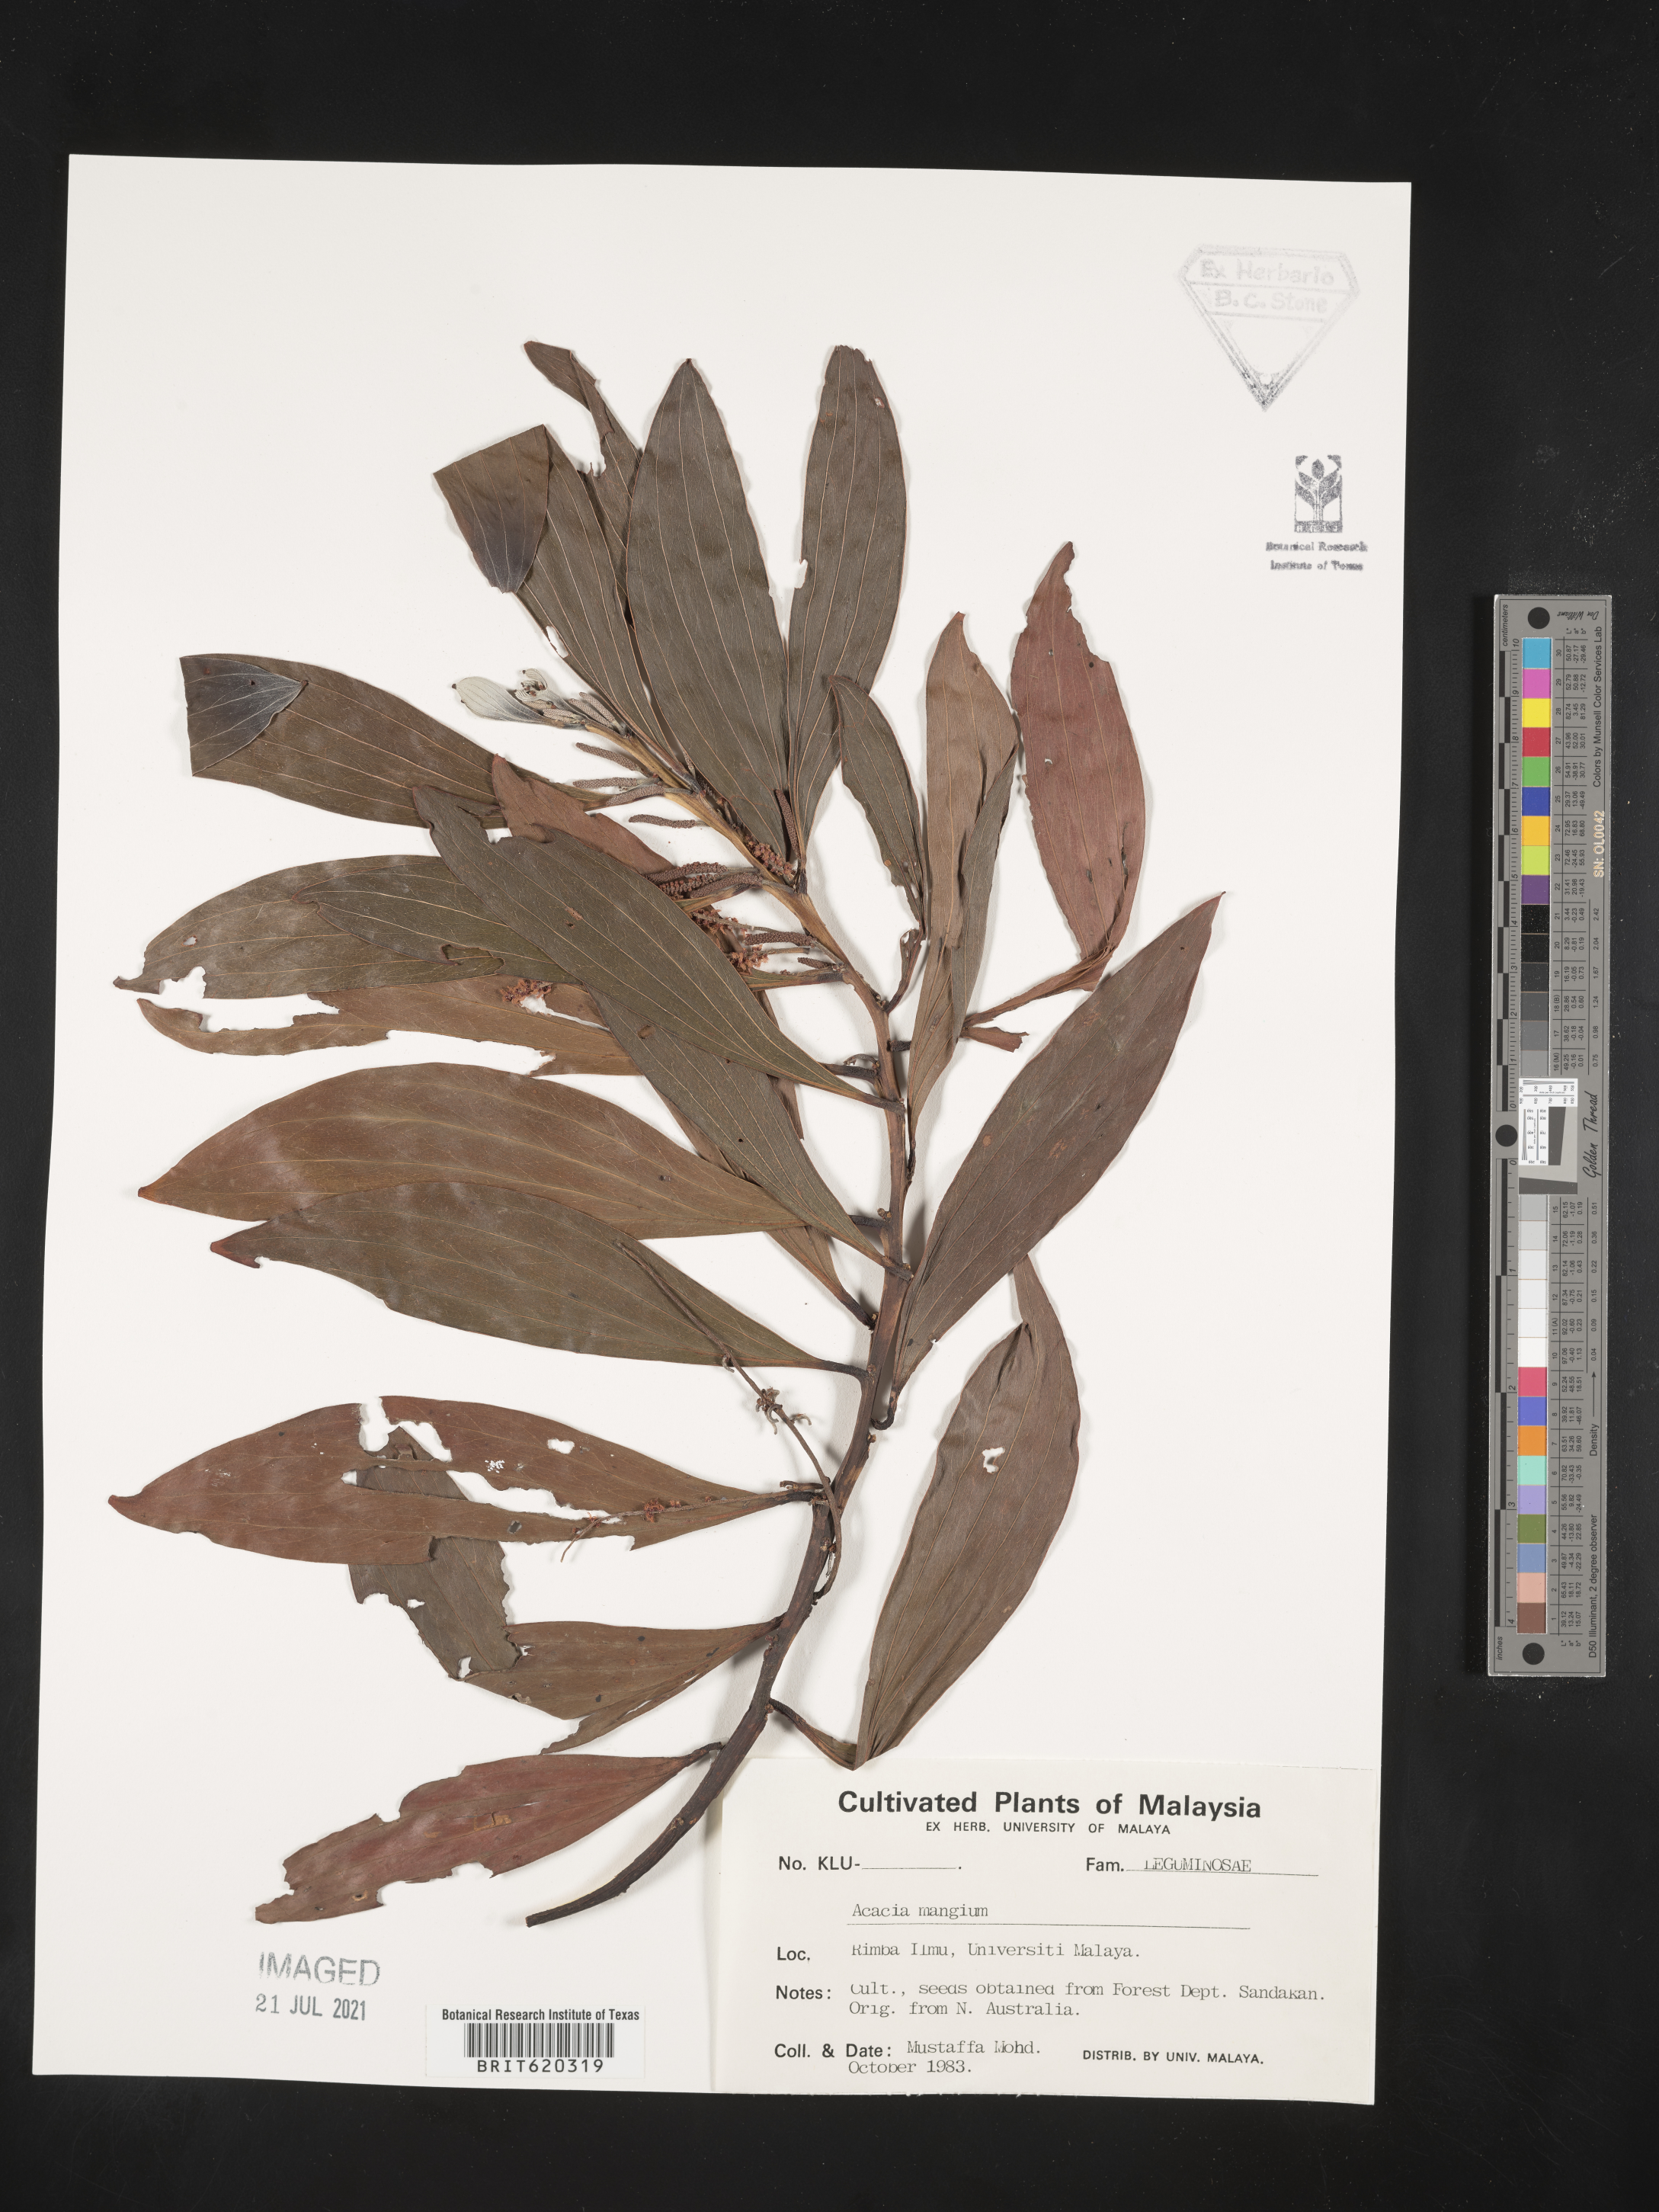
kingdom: Plantae
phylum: Tracheophyta
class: Magnoliopsida
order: Fabales
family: Fabaceae
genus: Acacia
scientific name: Acacia mangium
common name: Black wattle
